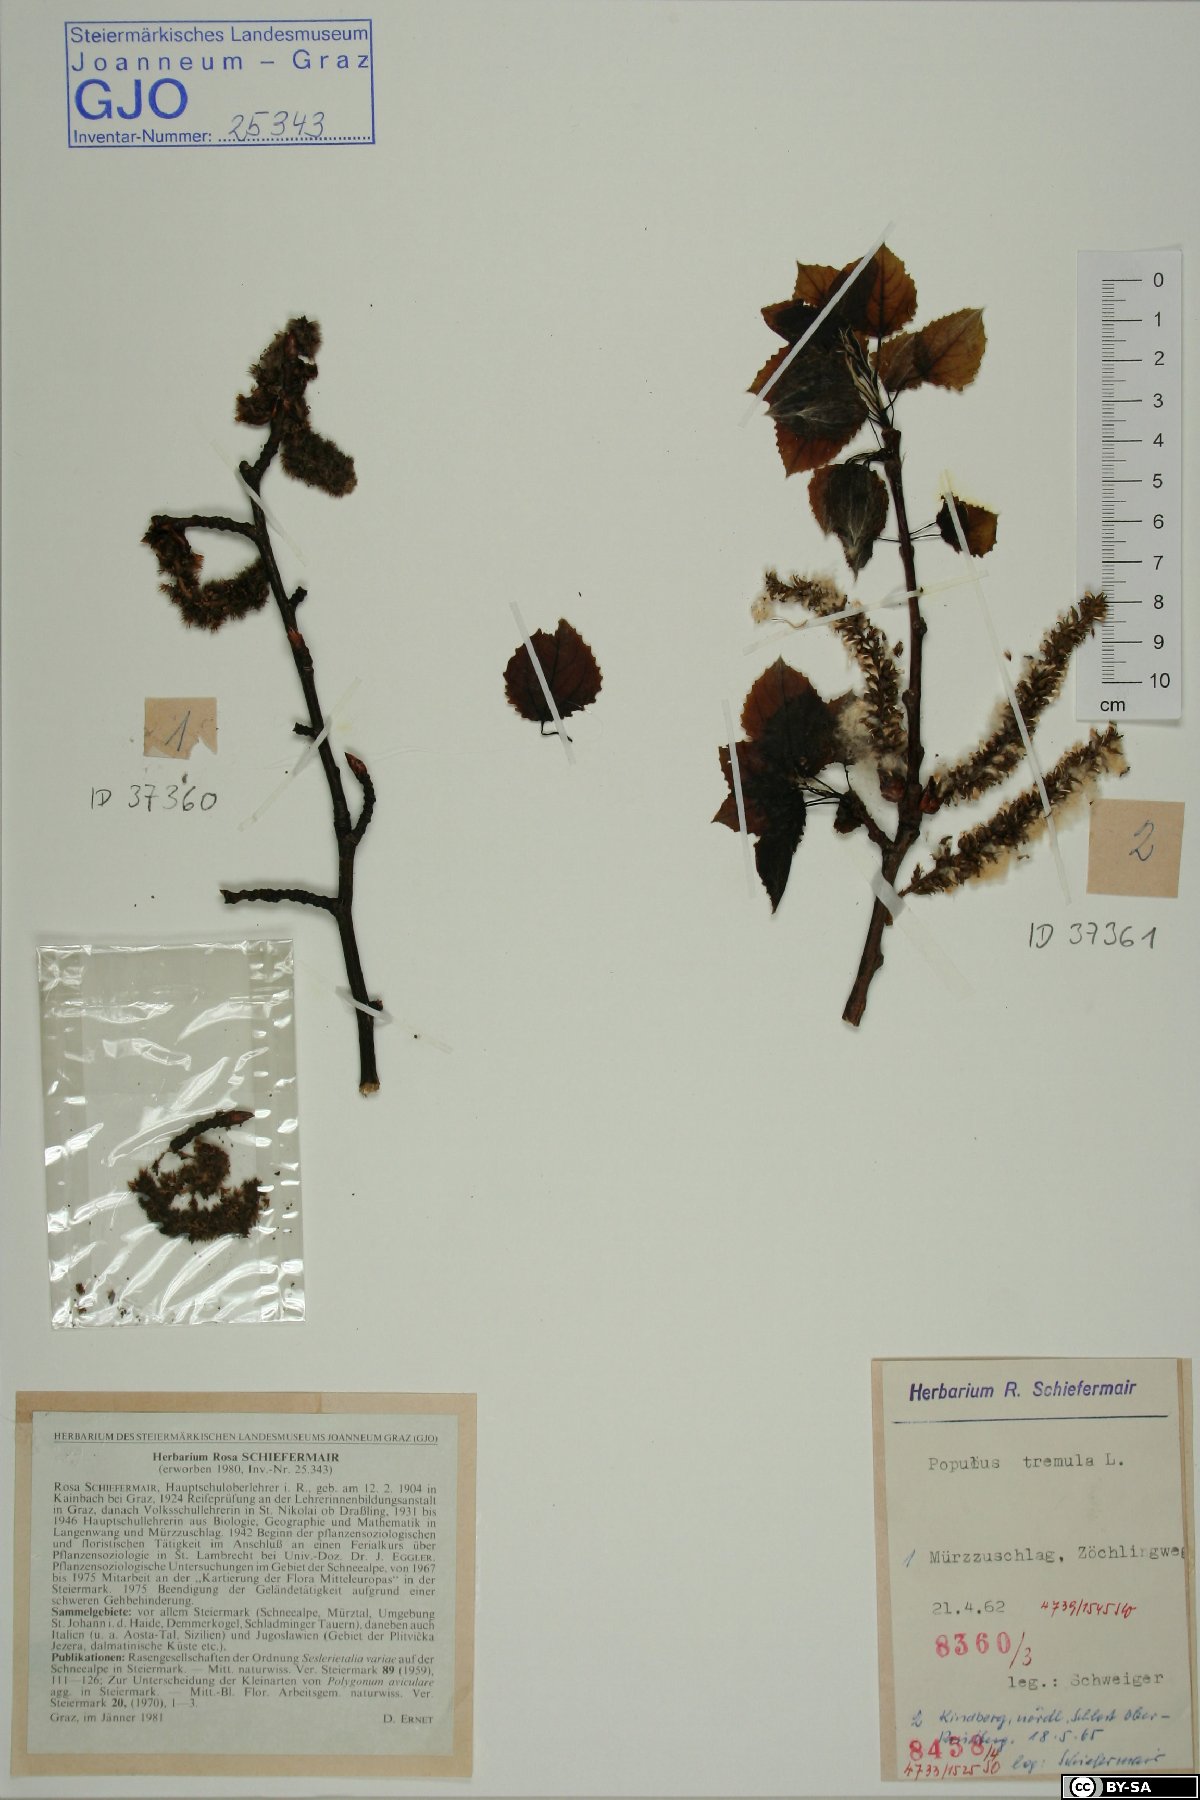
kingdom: Plantae
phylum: Tracheophyta
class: Magnoliopsida
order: Malpighiales
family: Salicaceae
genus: Populus
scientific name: Populus tremula
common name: European aspen
